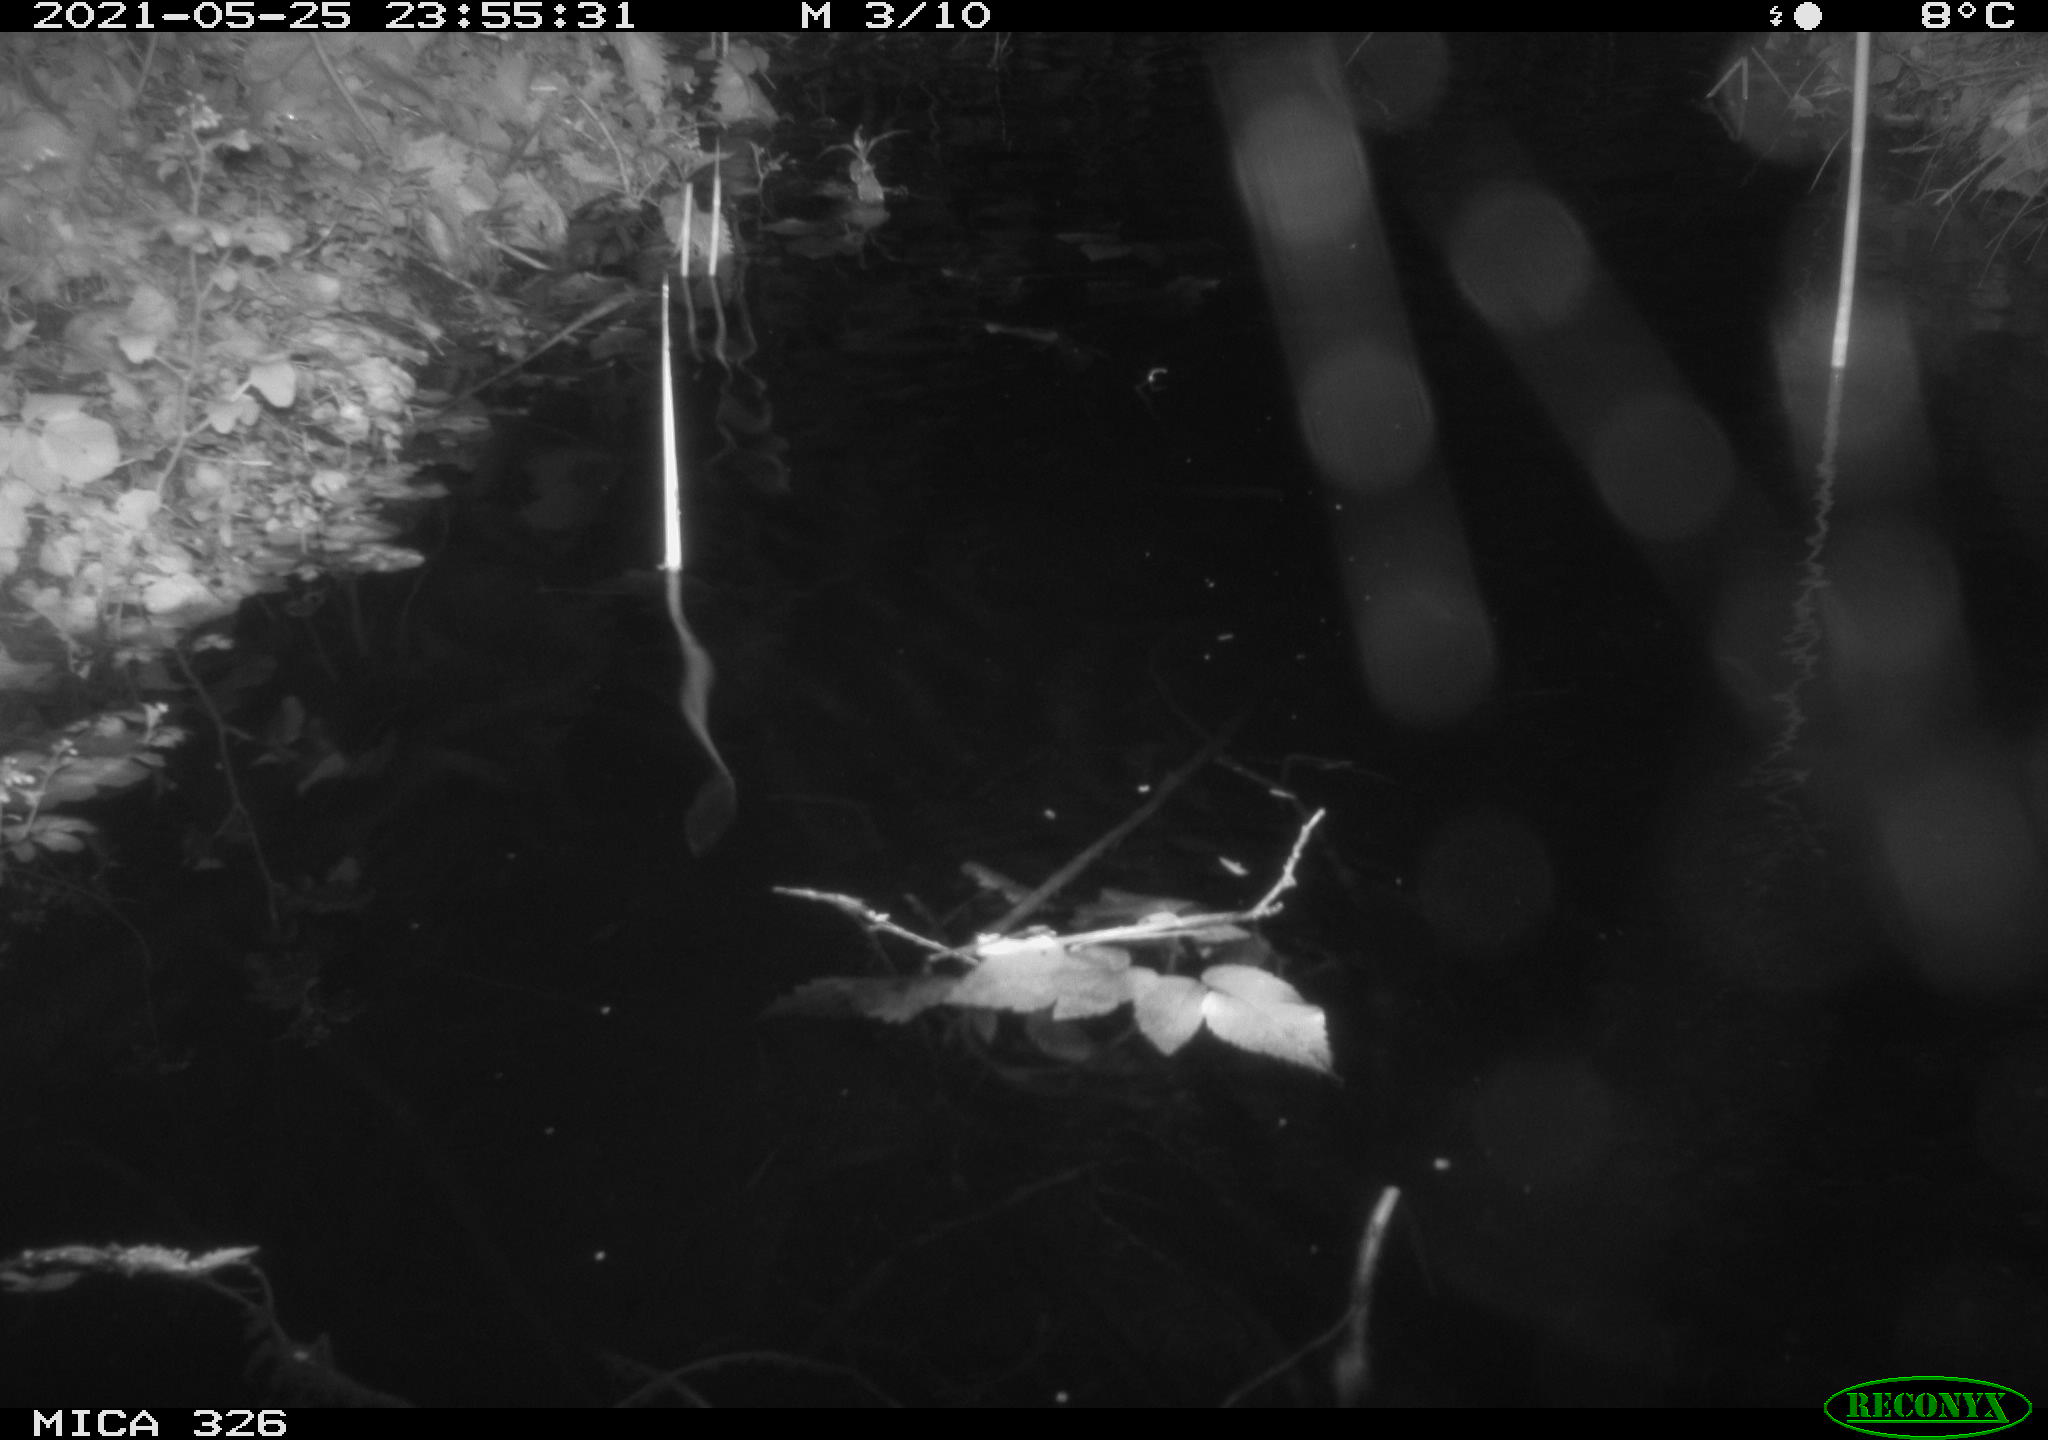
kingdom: Animalia
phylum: Chordata
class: Mammalia
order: Rodentia
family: Cricetidae
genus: Ondatra
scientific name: Ondatra zibethicus
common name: Muskrat
